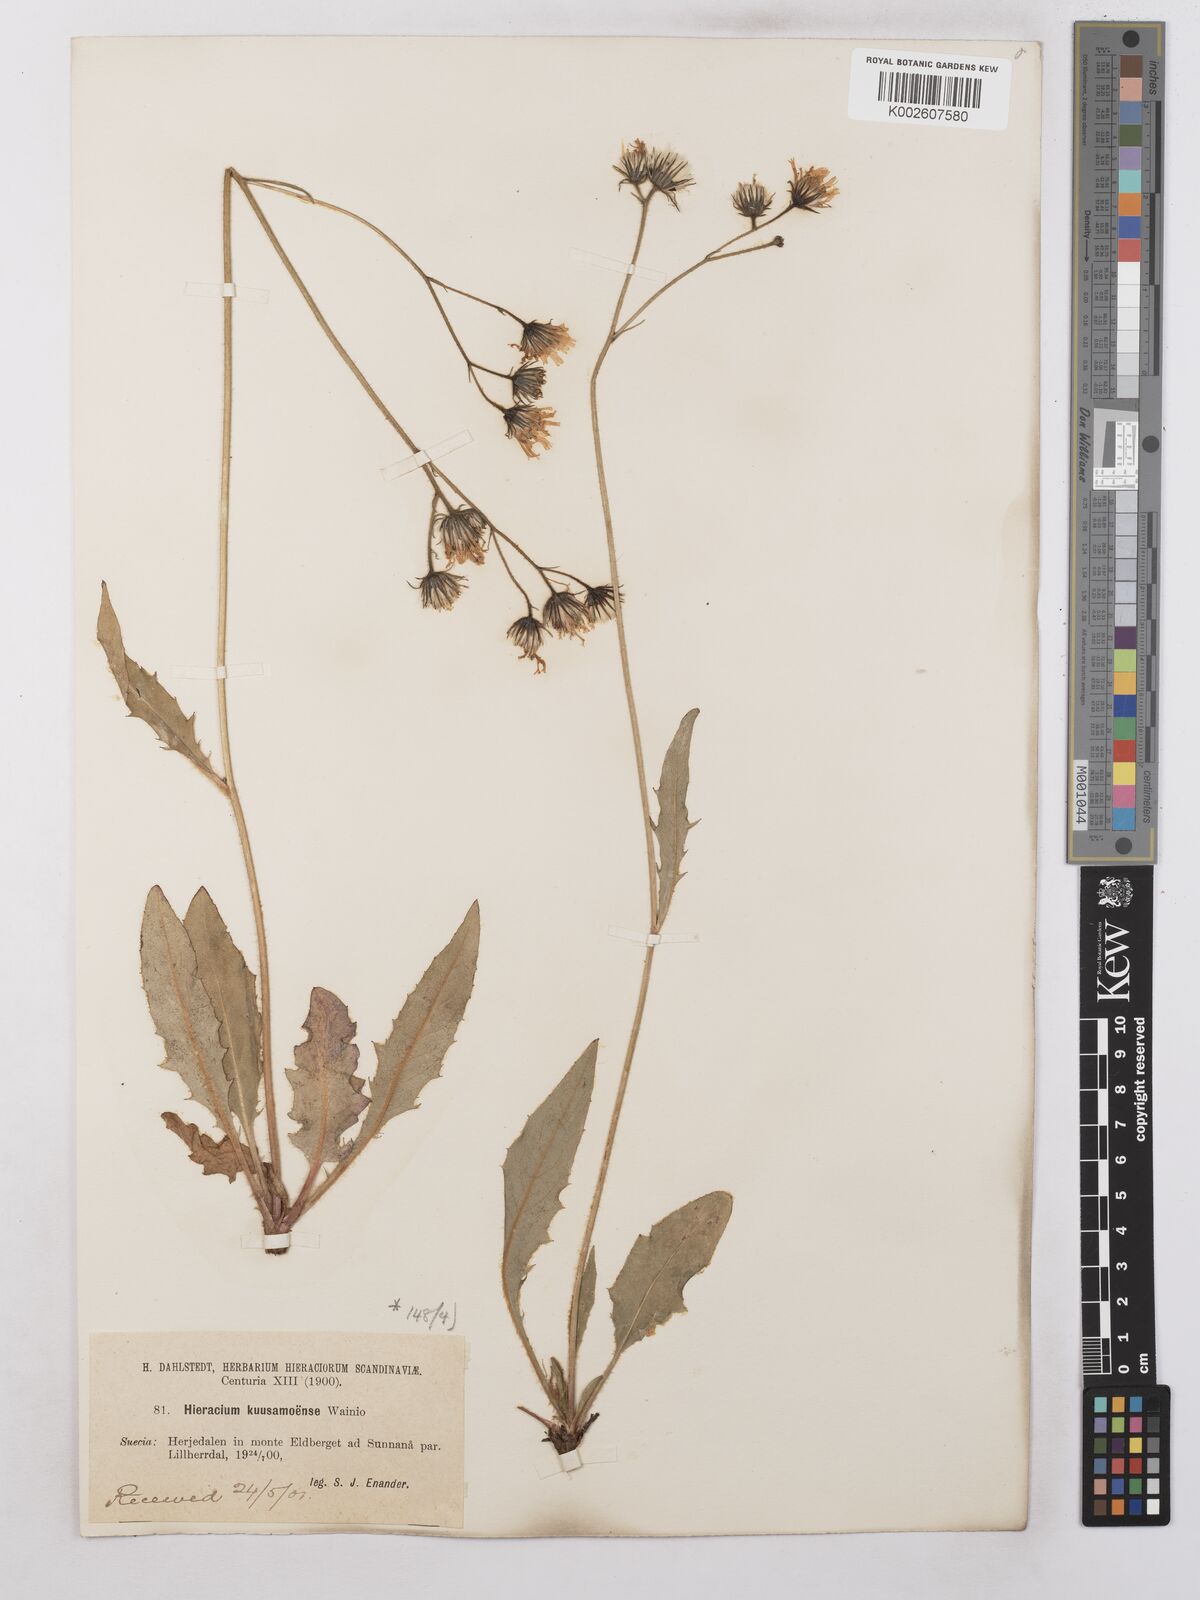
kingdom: Plantae
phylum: Tracheophyta
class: Magnoliopsida
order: Asterales
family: Asteraceae
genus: Hieracium
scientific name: Hieracium subramosum
